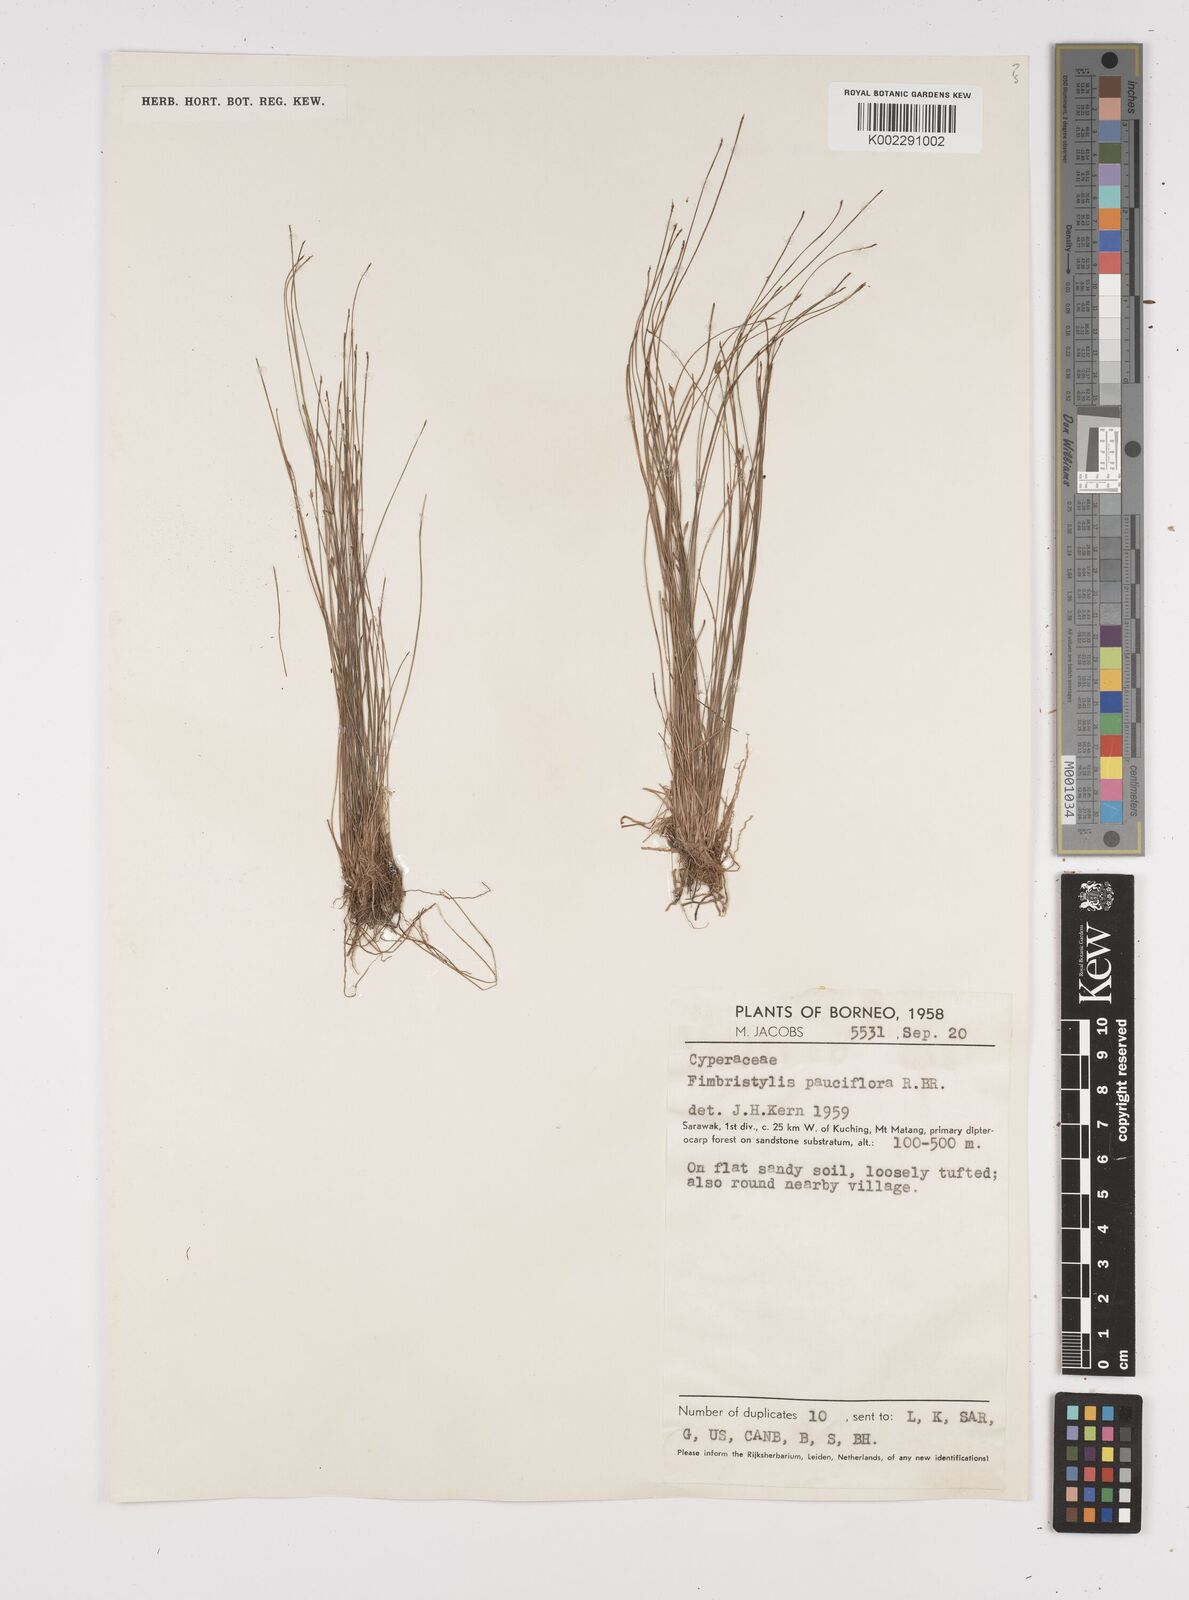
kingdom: Plantae
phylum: Tracheophyta
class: Liliopsida
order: Poales
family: Cyperaceae
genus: Fimbristylis
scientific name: Fimbristylis pauciflora
